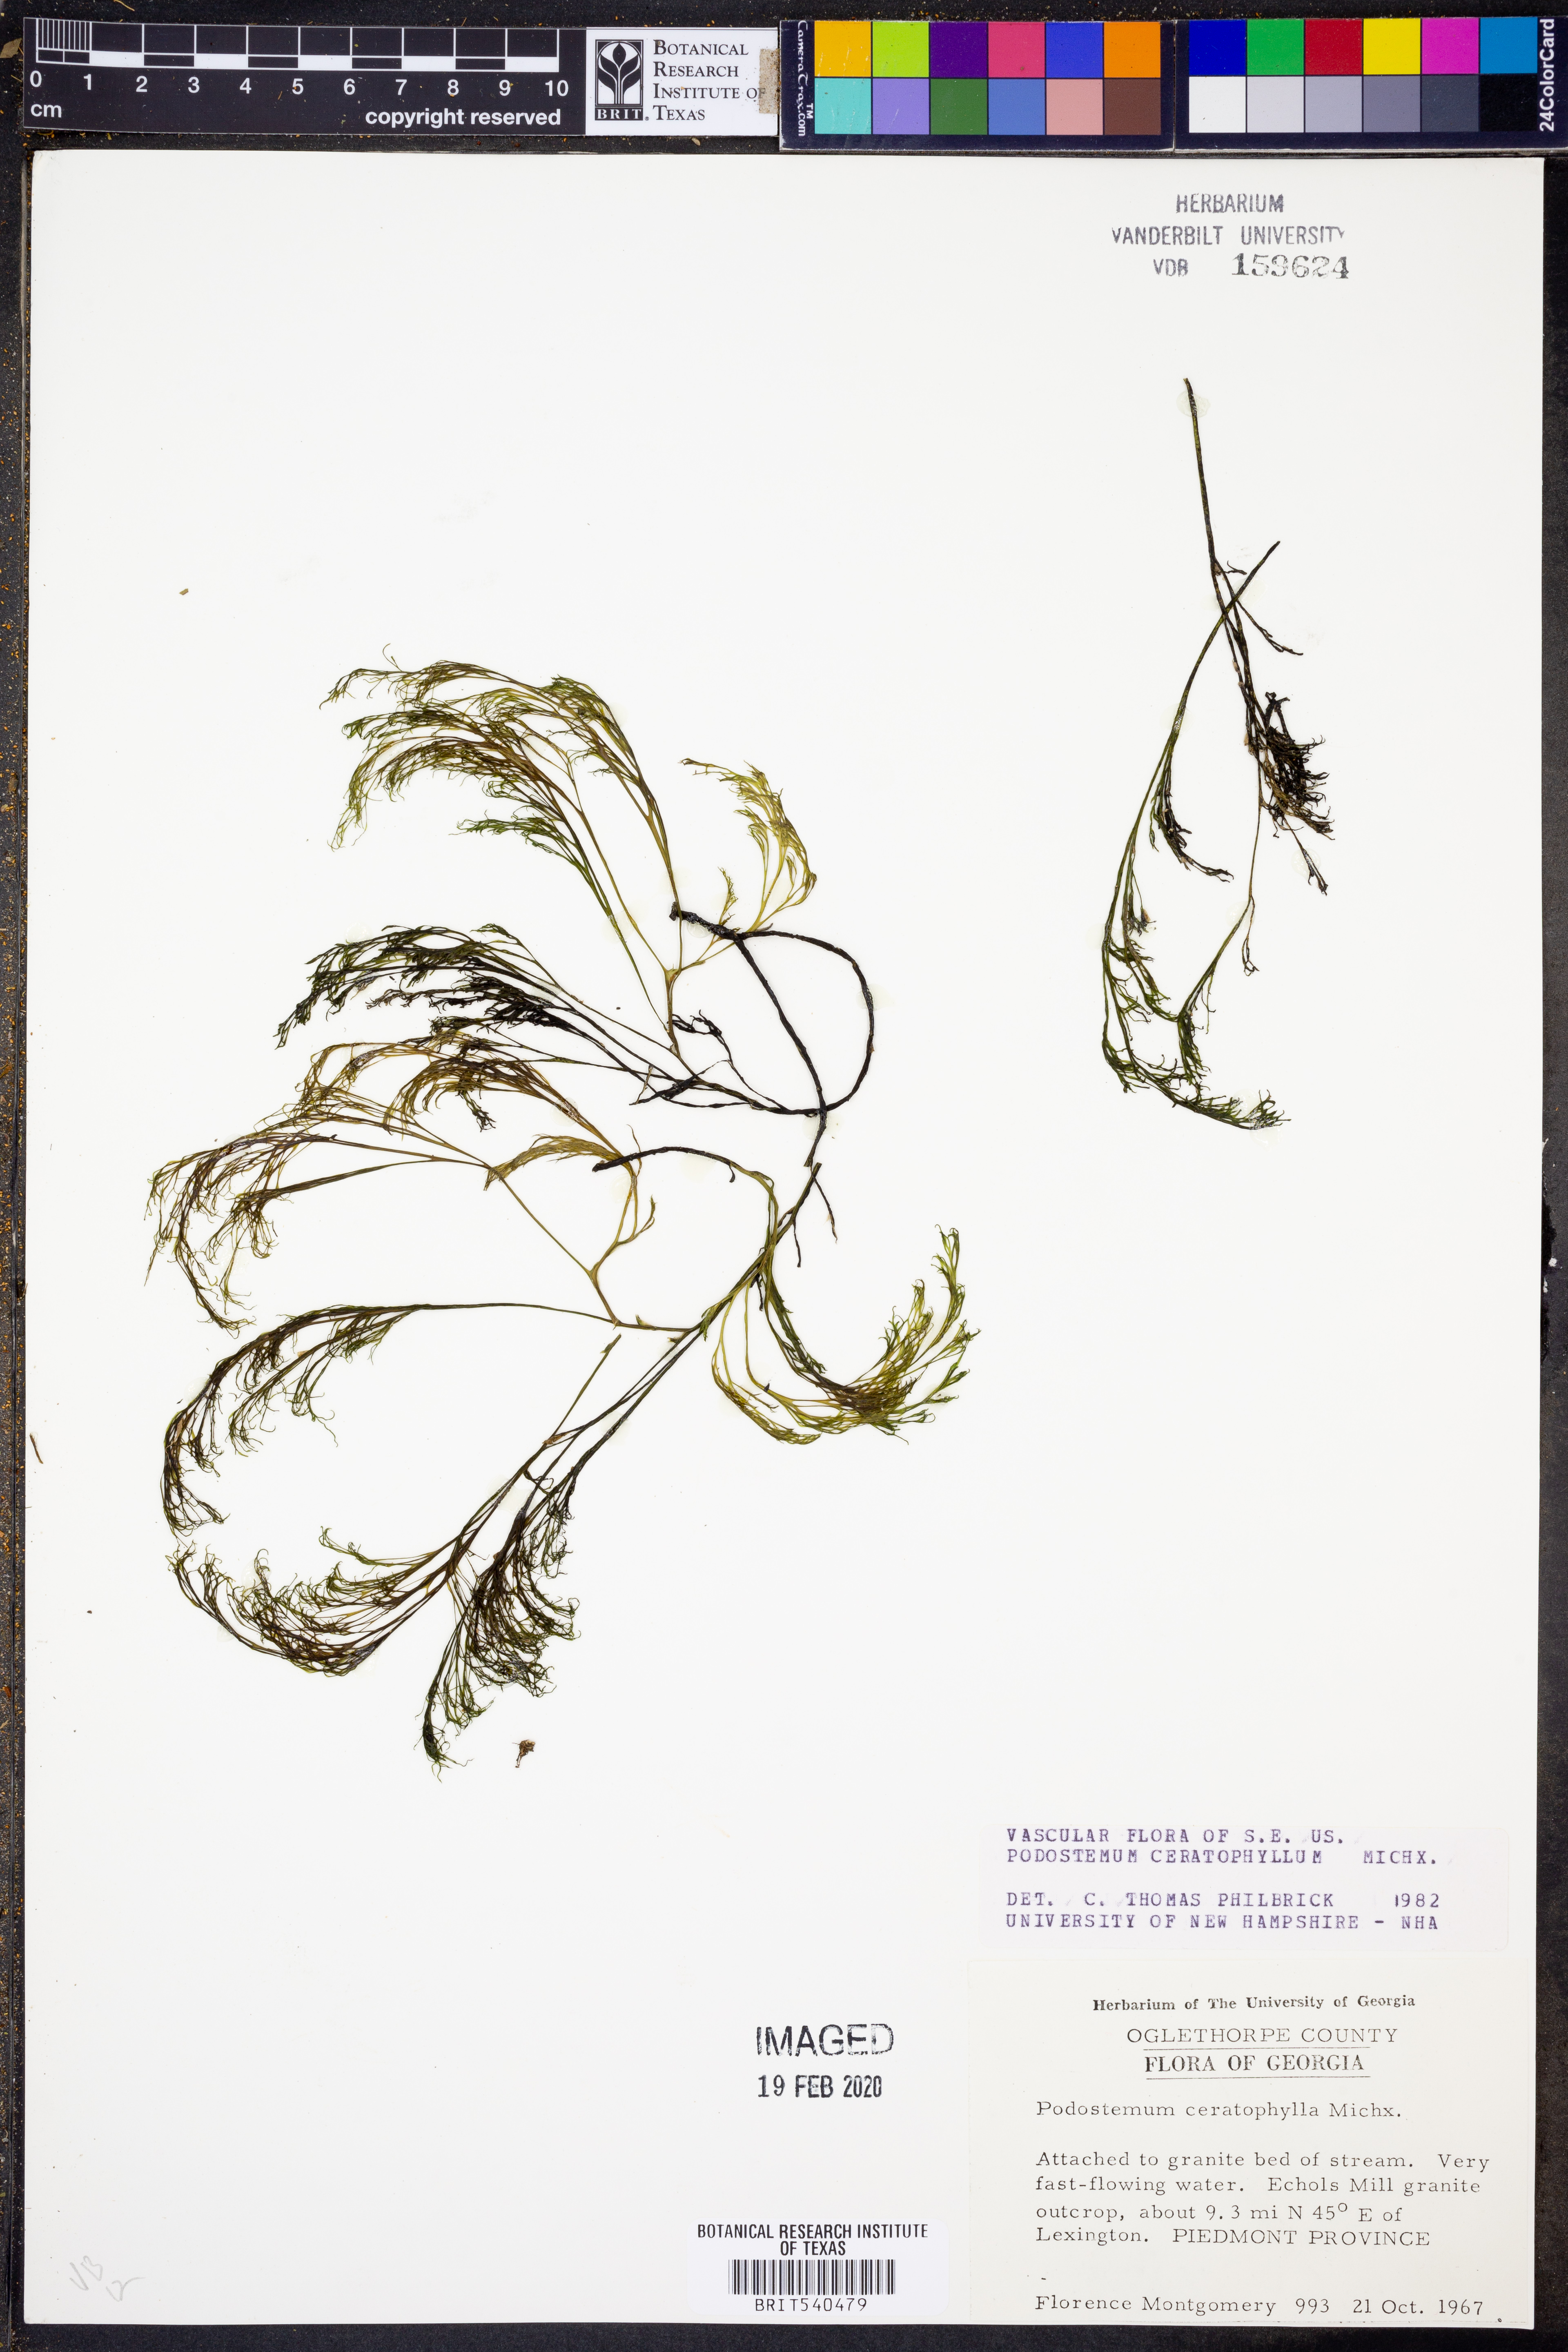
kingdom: Plantae
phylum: Tracheophyta
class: Magnoliopsida
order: Malpighiales
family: Podostemaceae
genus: Podostemum
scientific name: Podostemum ceratophyllum
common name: Horn-leaved riverweed
